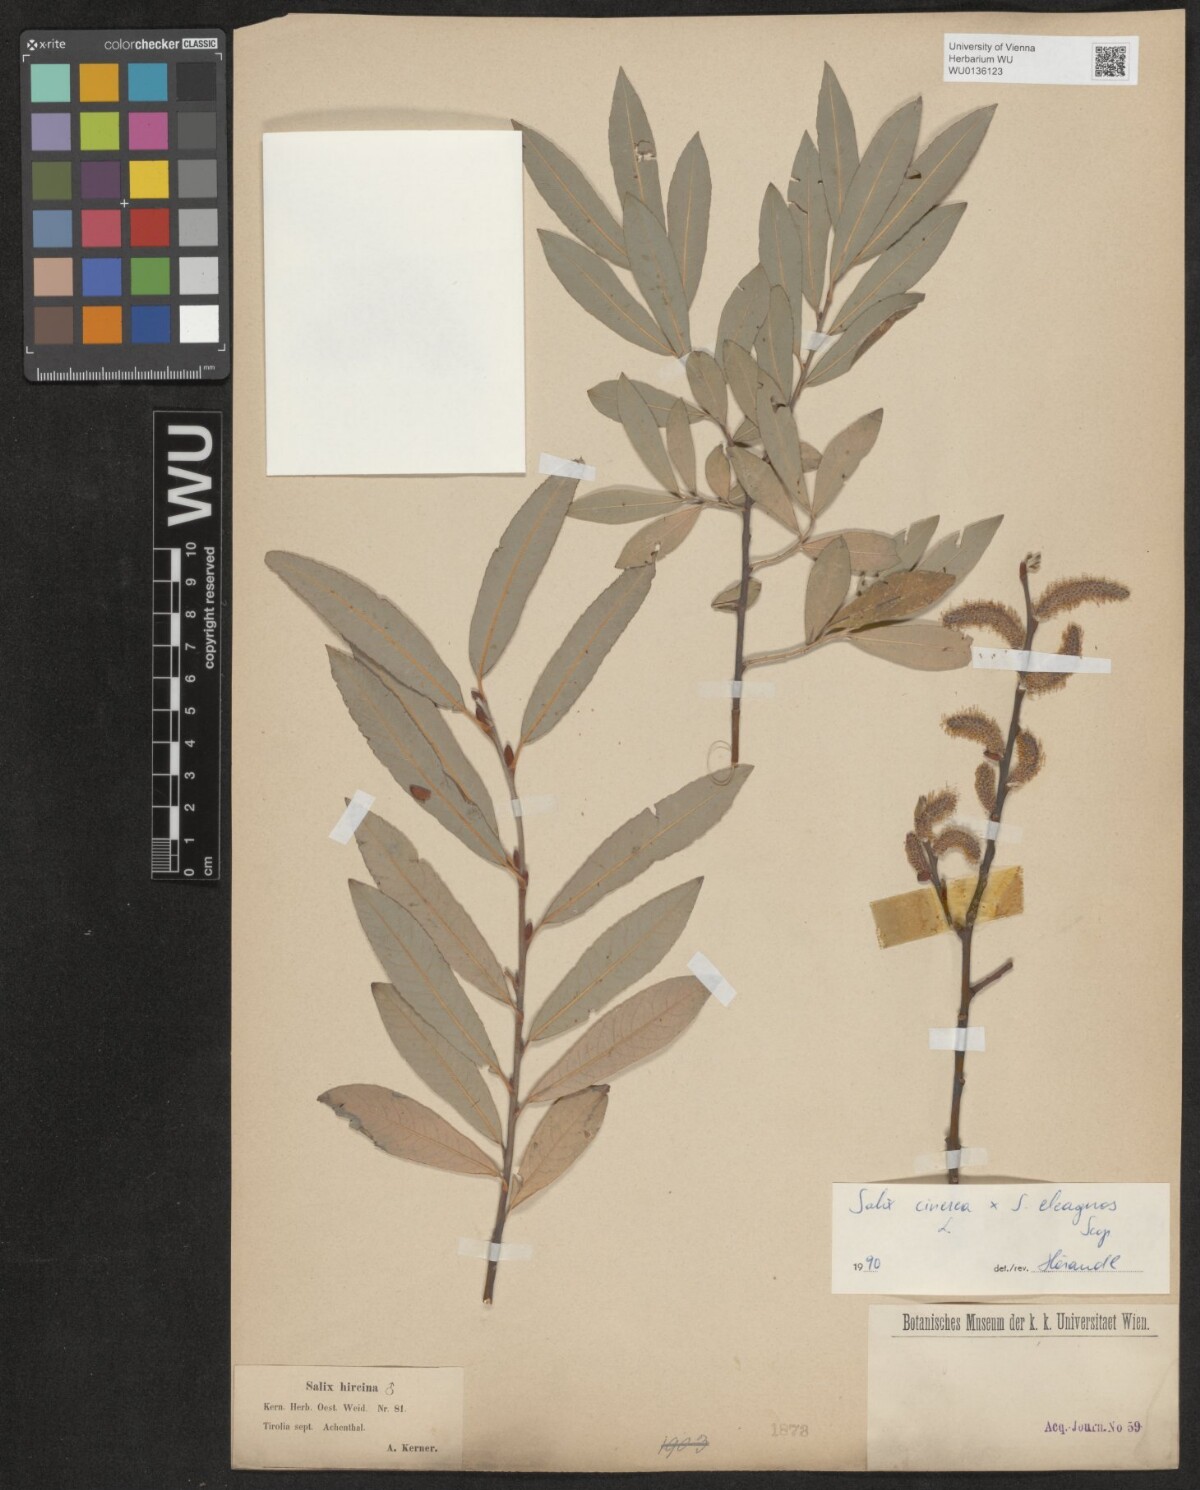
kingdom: Plantae
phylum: Tracheophyta
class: Magnoliopsida
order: Malpighiales
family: Salicaceae
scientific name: Salicaceae
